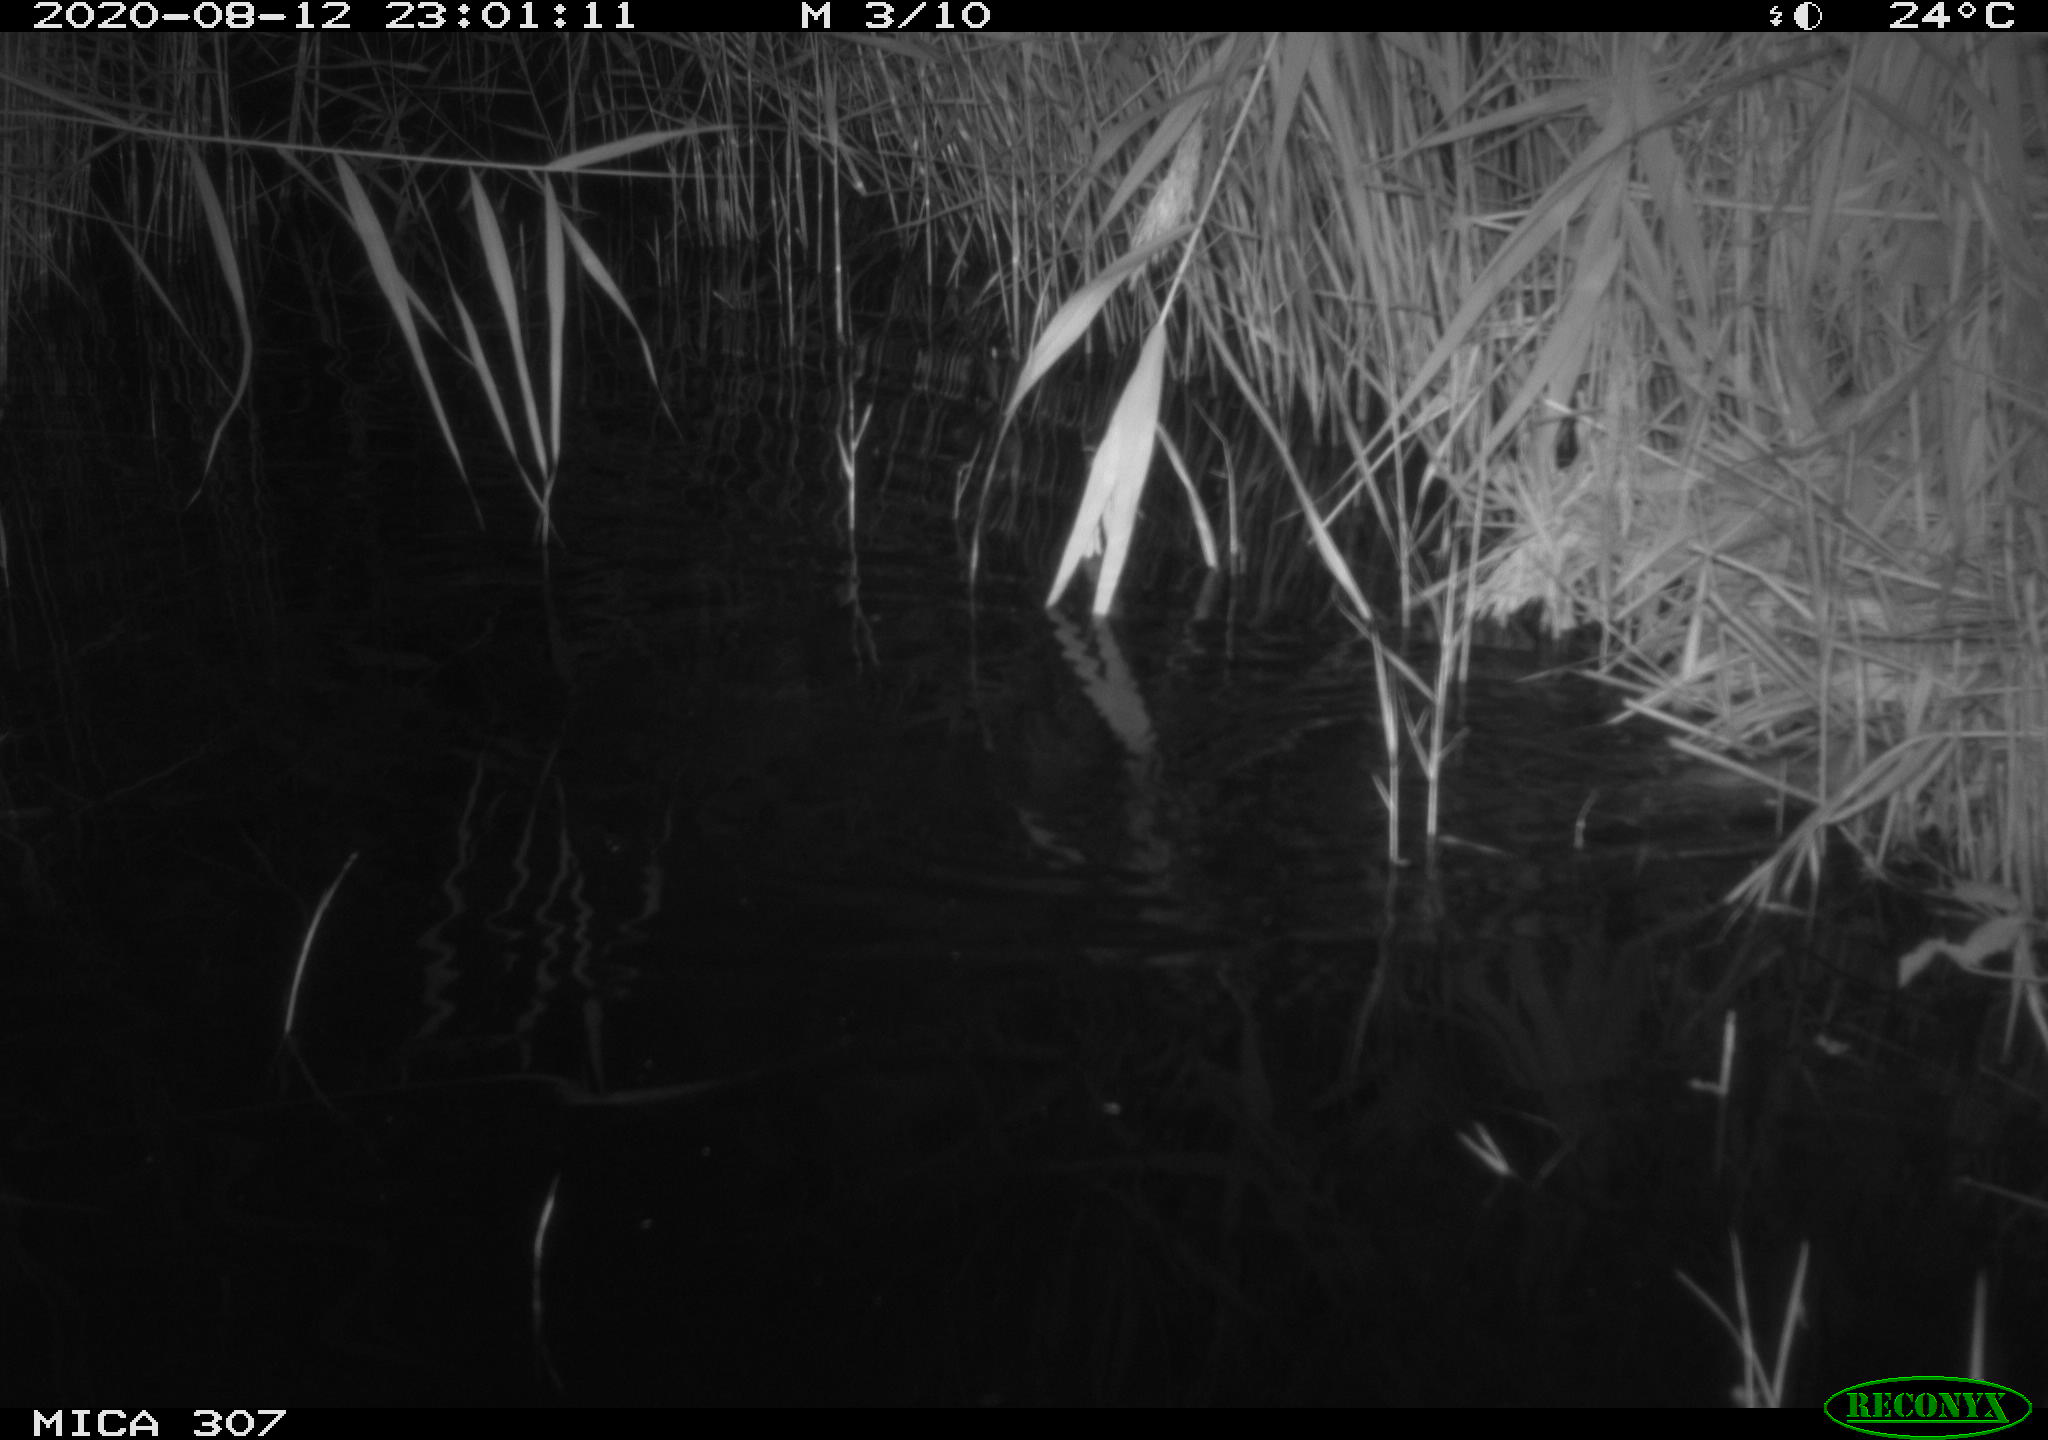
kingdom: Animalia
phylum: Chordata
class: Mammalia
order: Rodentia
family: Muridae
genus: Rattus
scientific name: Rattus norvegicus
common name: Brown rat
